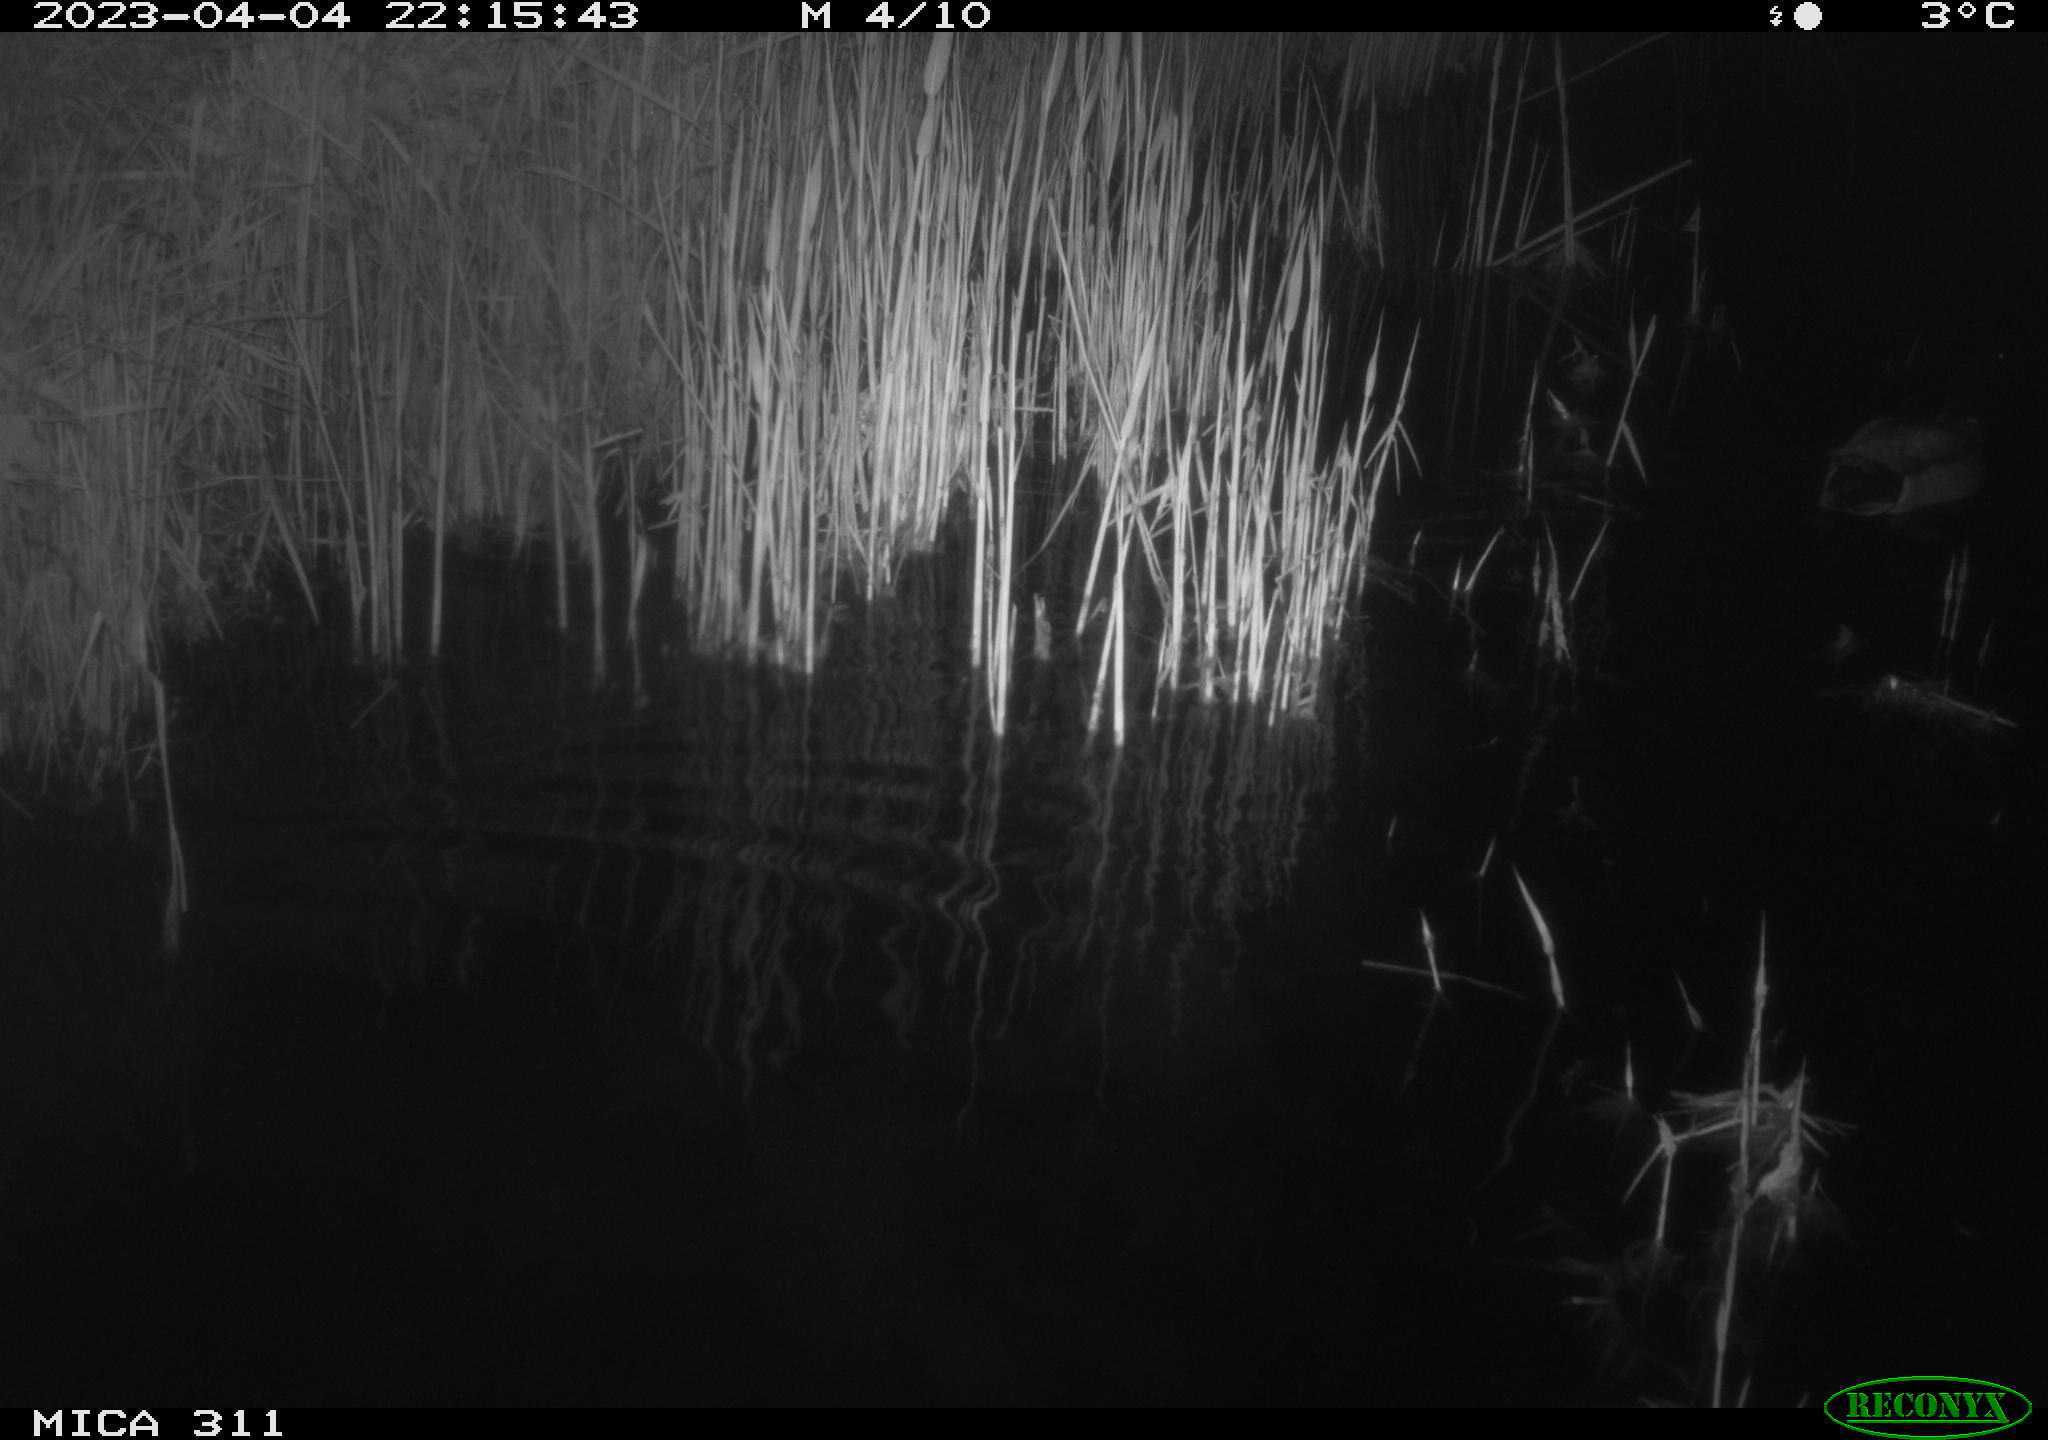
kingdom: Animalia
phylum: Chordata
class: Aves
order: Anseriformes
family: Anatidae
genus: Anas
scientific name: Anas
